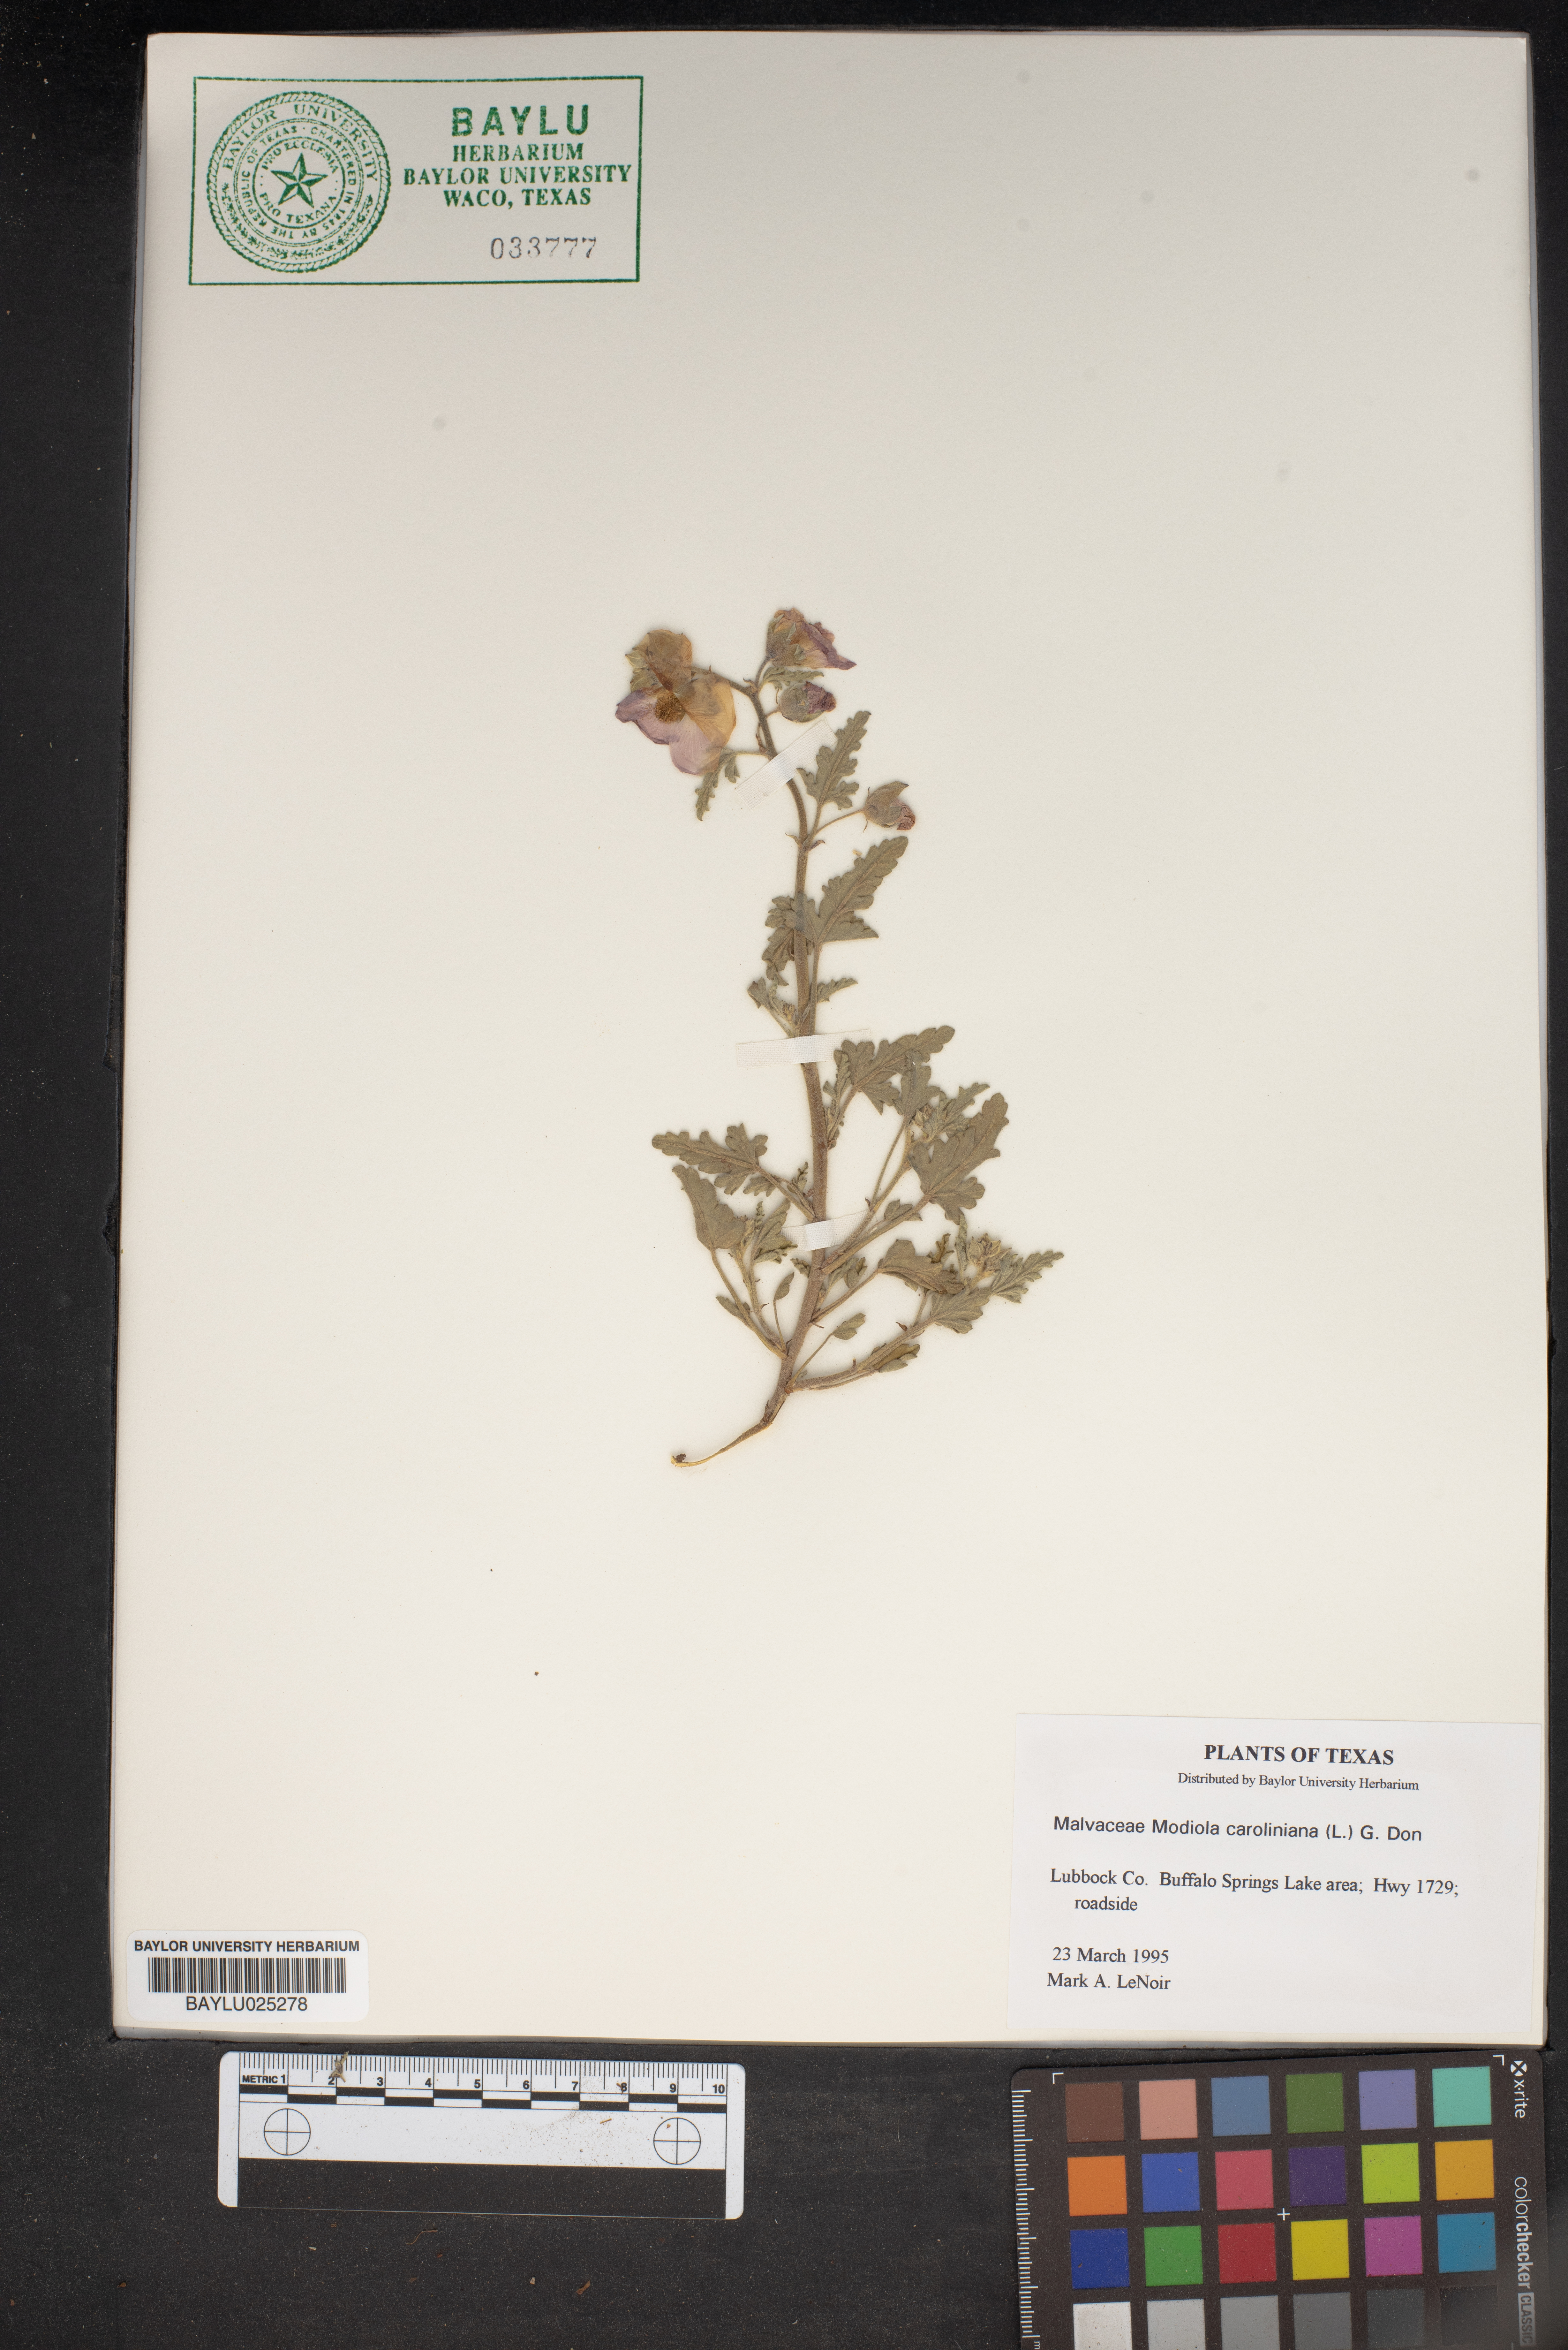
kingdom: Plantae
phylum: Tracheophyta
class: Magnoliopsida
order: Malvales
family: Malvaceae
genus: Modiola
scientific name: Modiola caroliniana
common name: Carolina bristlemallow
